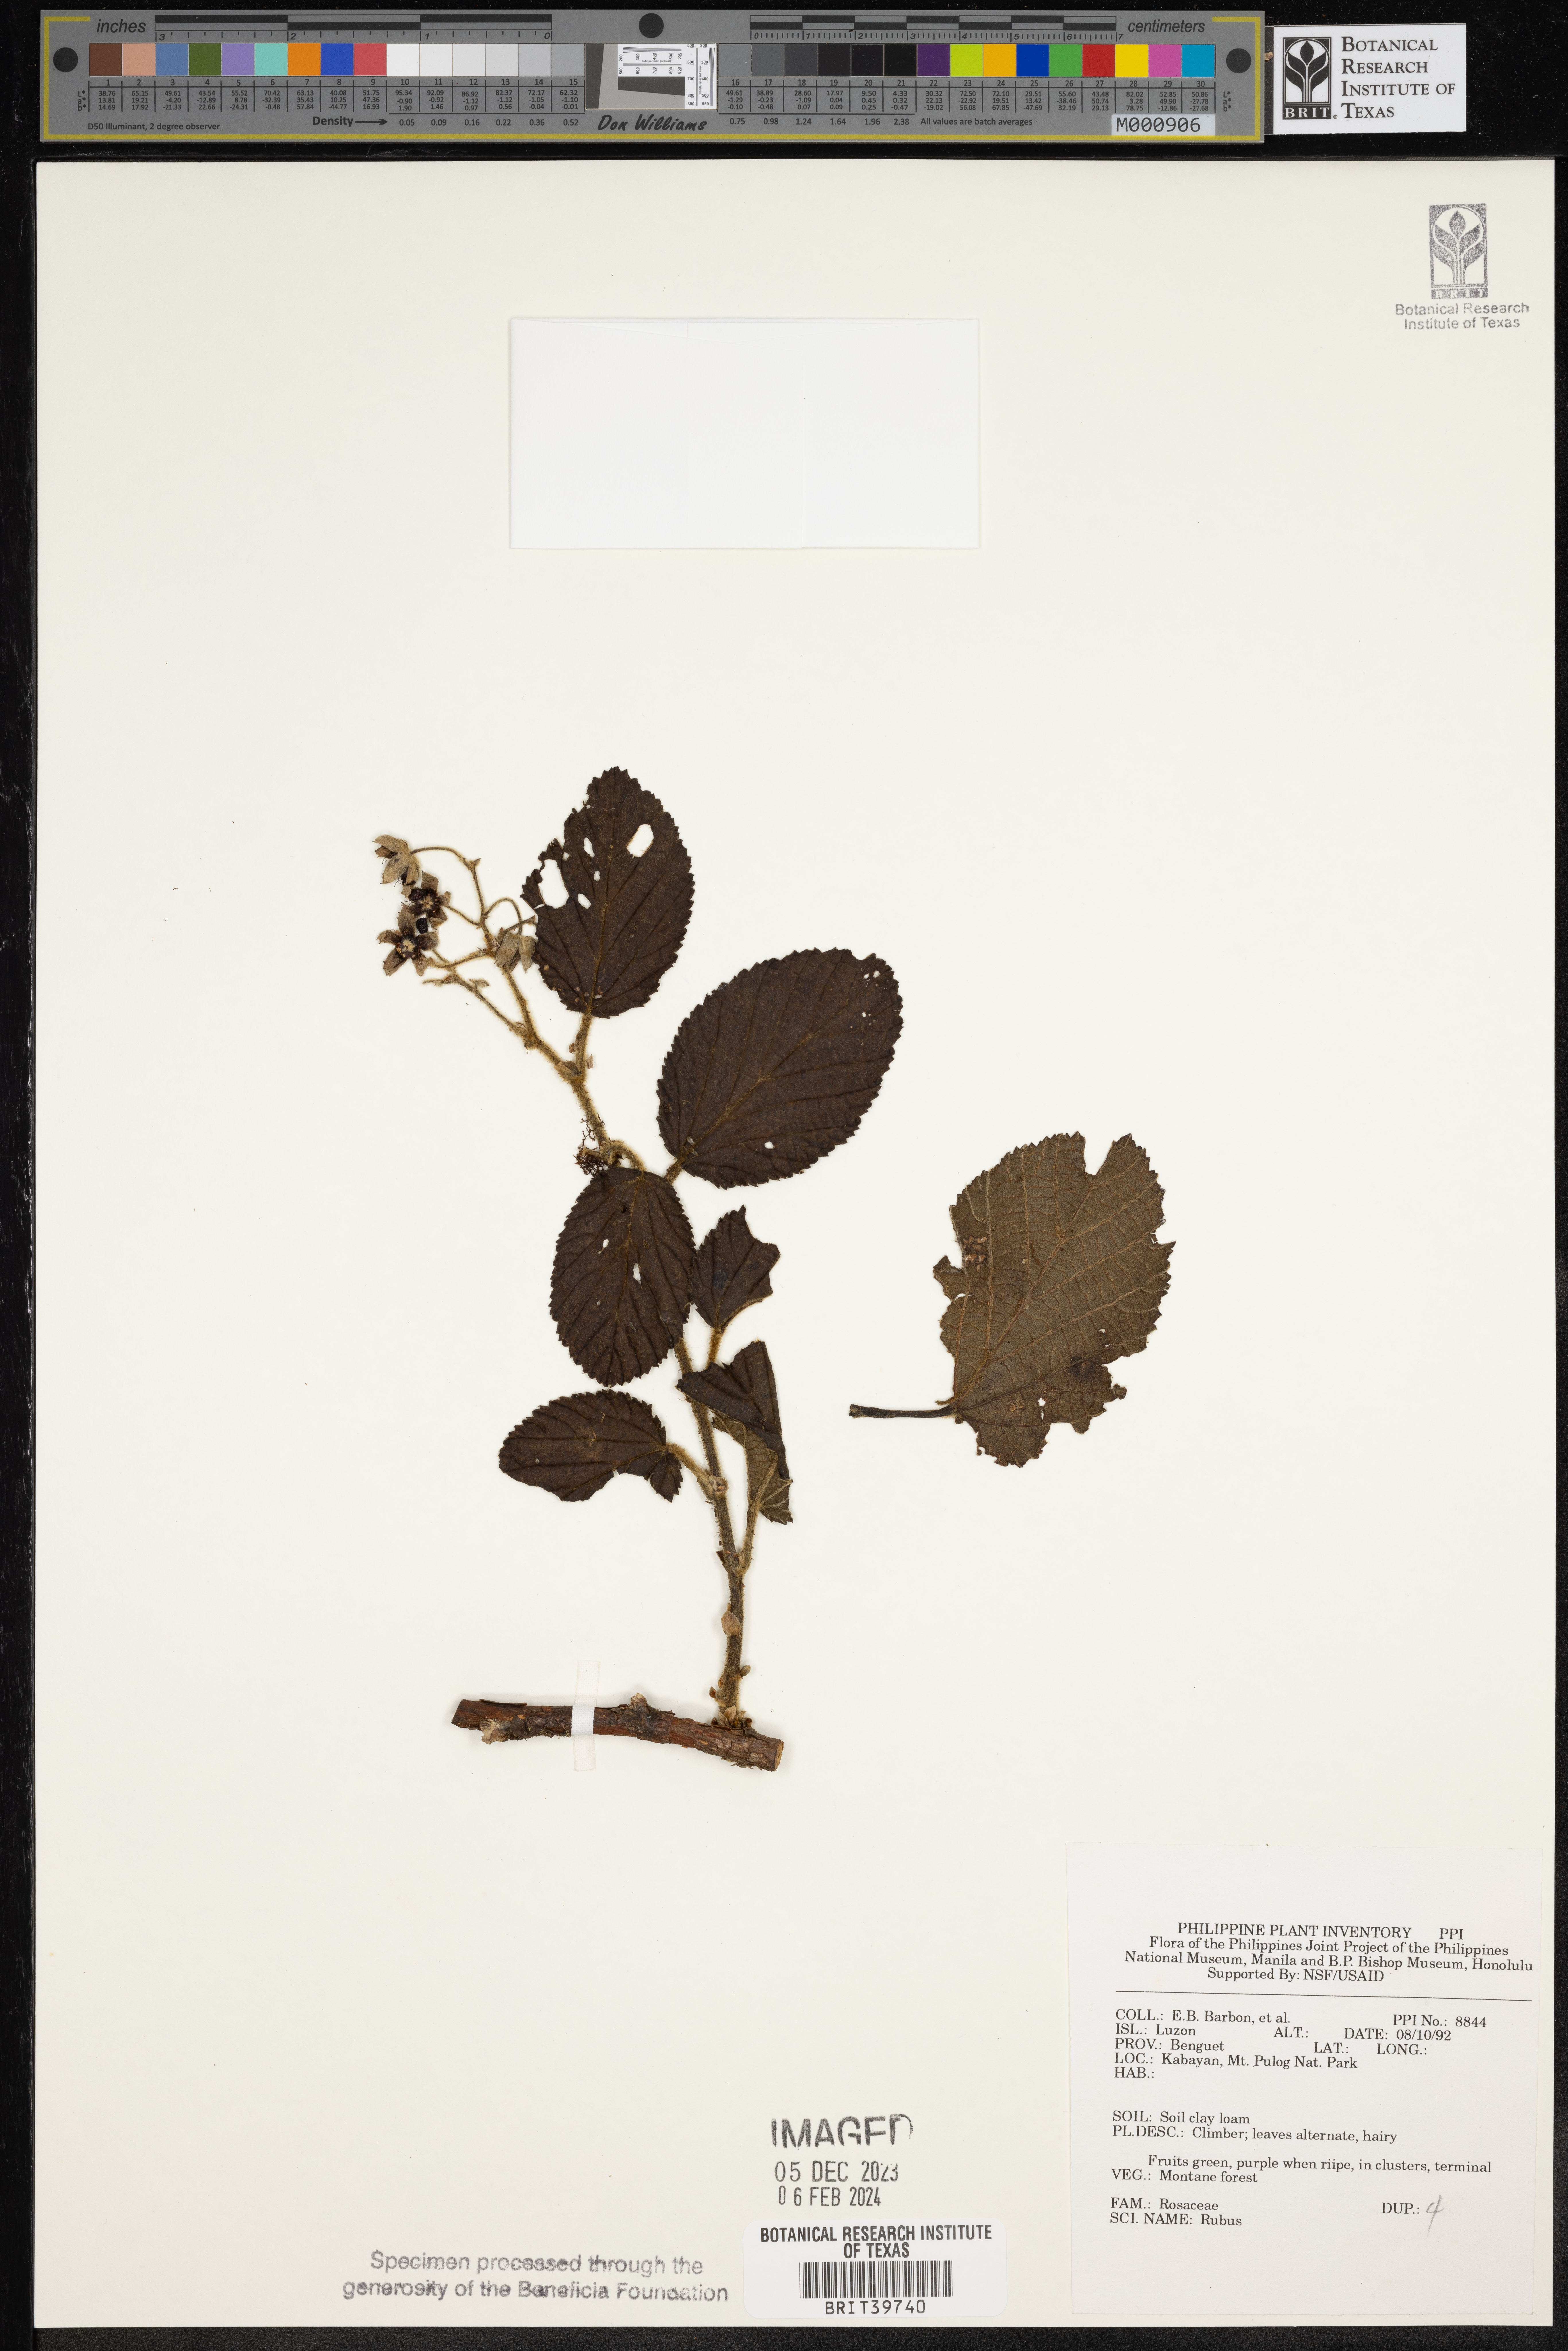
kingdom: Plantae
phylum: Tracheophyta
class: Magnoliopsida
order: Rosales
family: Rosaceae
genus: Rubus
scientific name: Rubus
